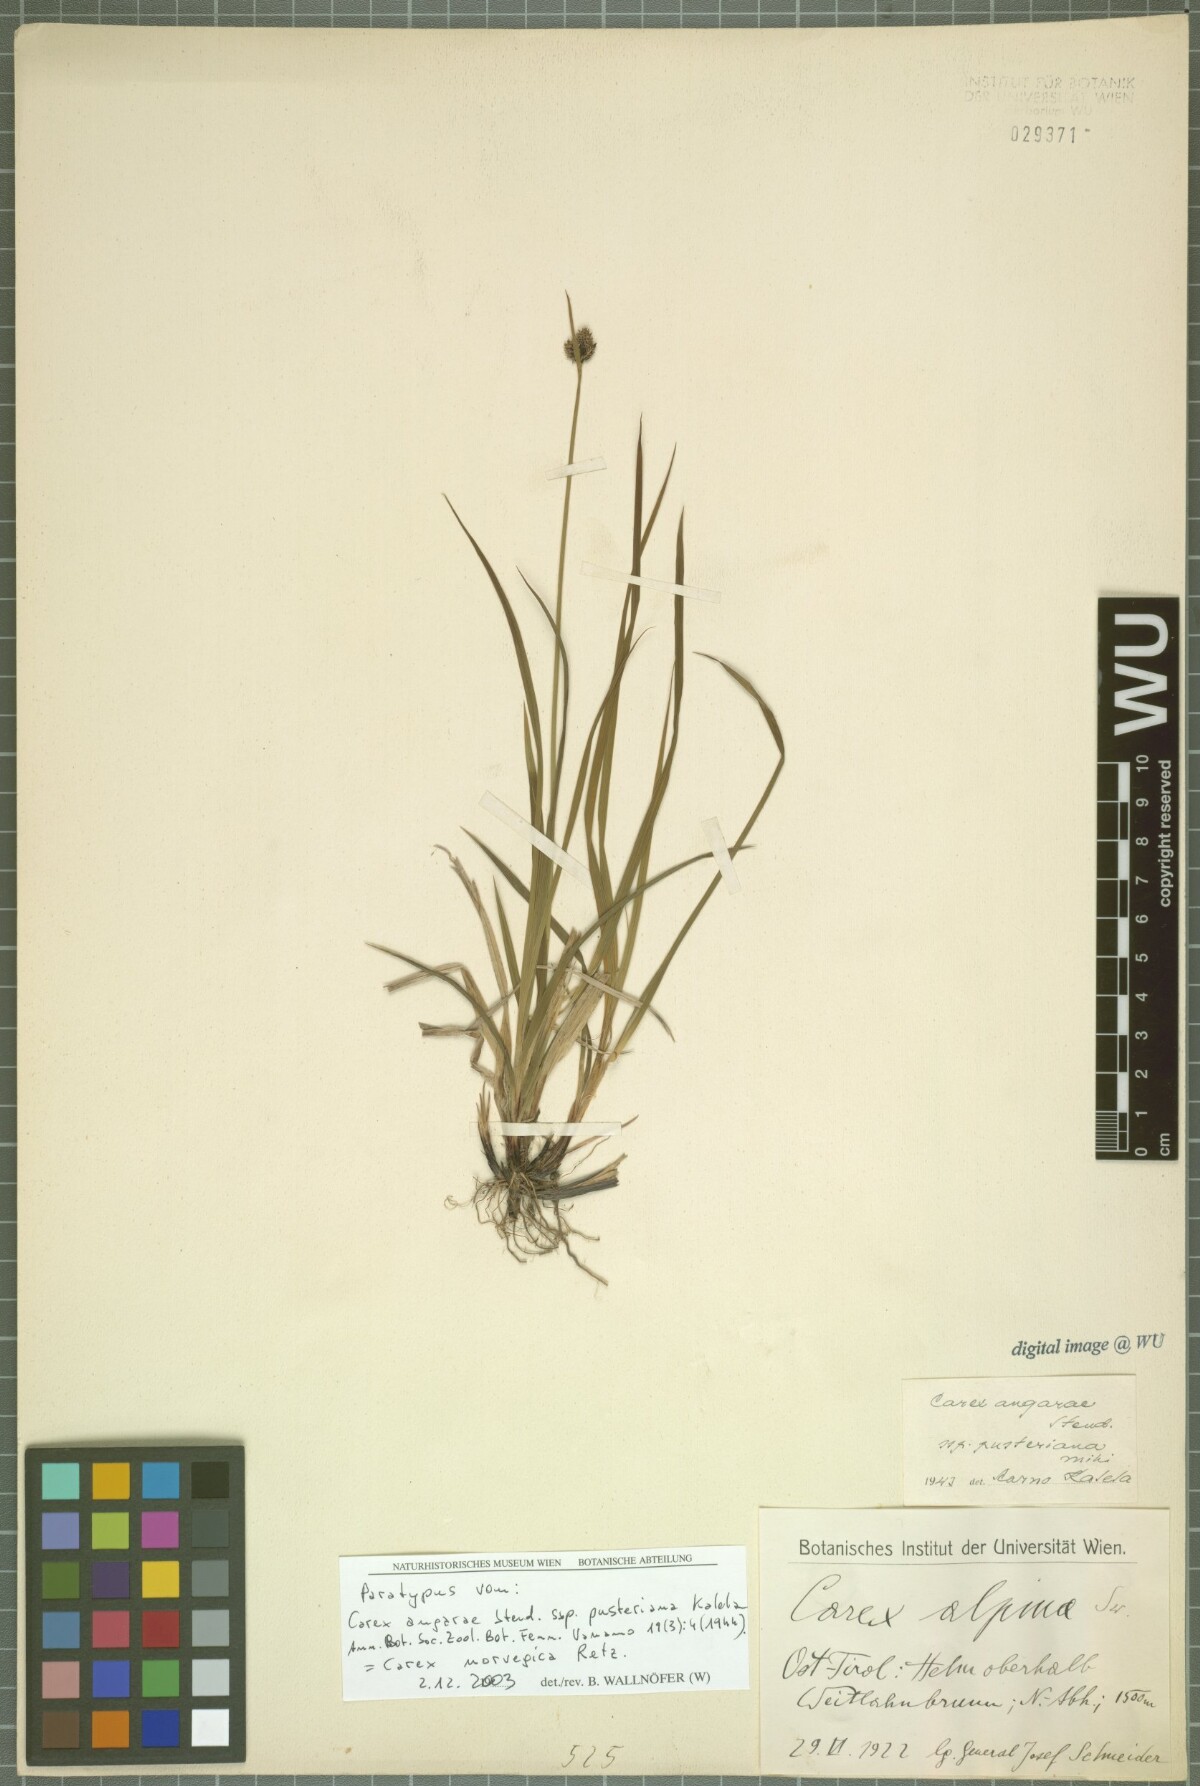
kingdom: Plantae
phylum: Tracheophyta
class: Liliopsida
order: Poales
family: Cyperaceae
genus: Carex
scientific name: Carex norvegica
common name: Close-headed alpine-sedge
